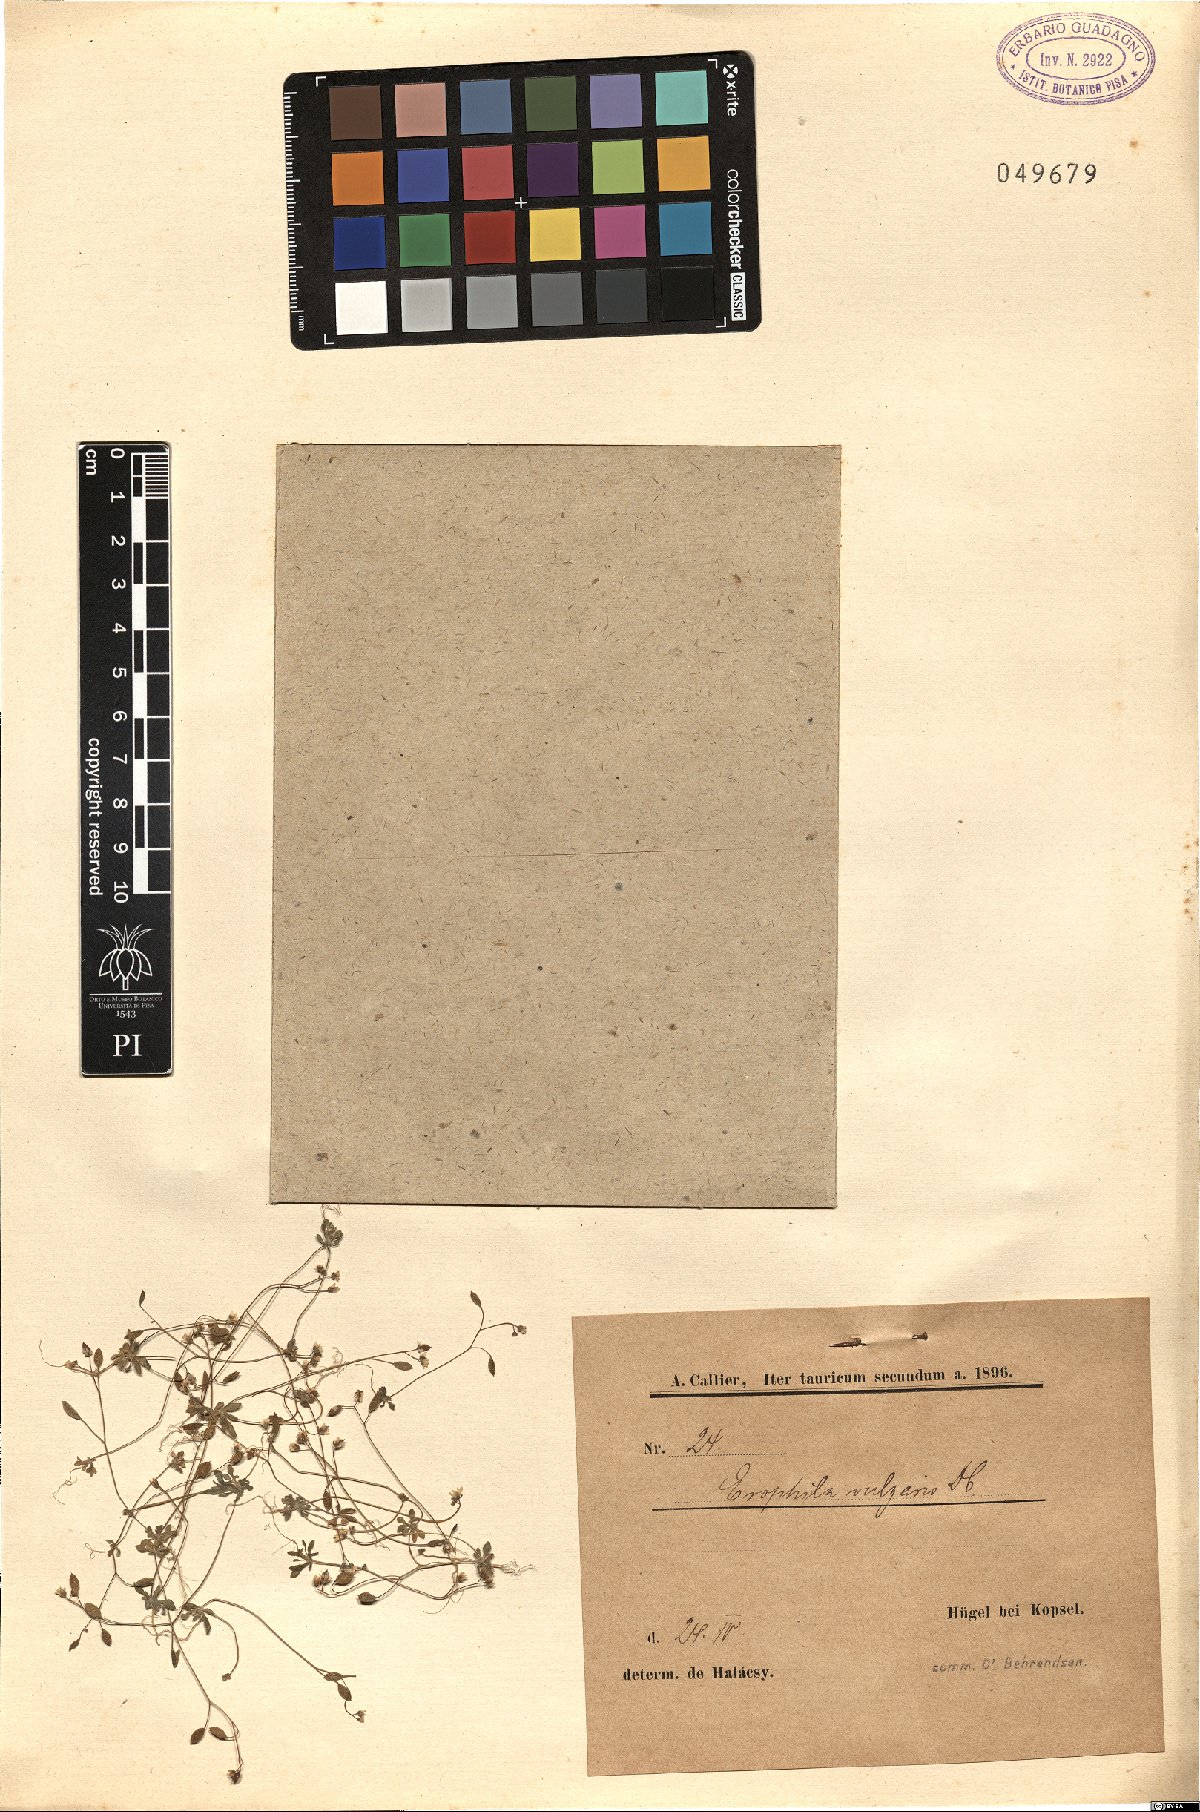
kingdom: Plantae
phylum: Tracheophyta
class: Magnoliopsida
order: Brassicales
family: Brassicaceae
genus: Draba
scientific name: Draba verna
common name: Spring draba
